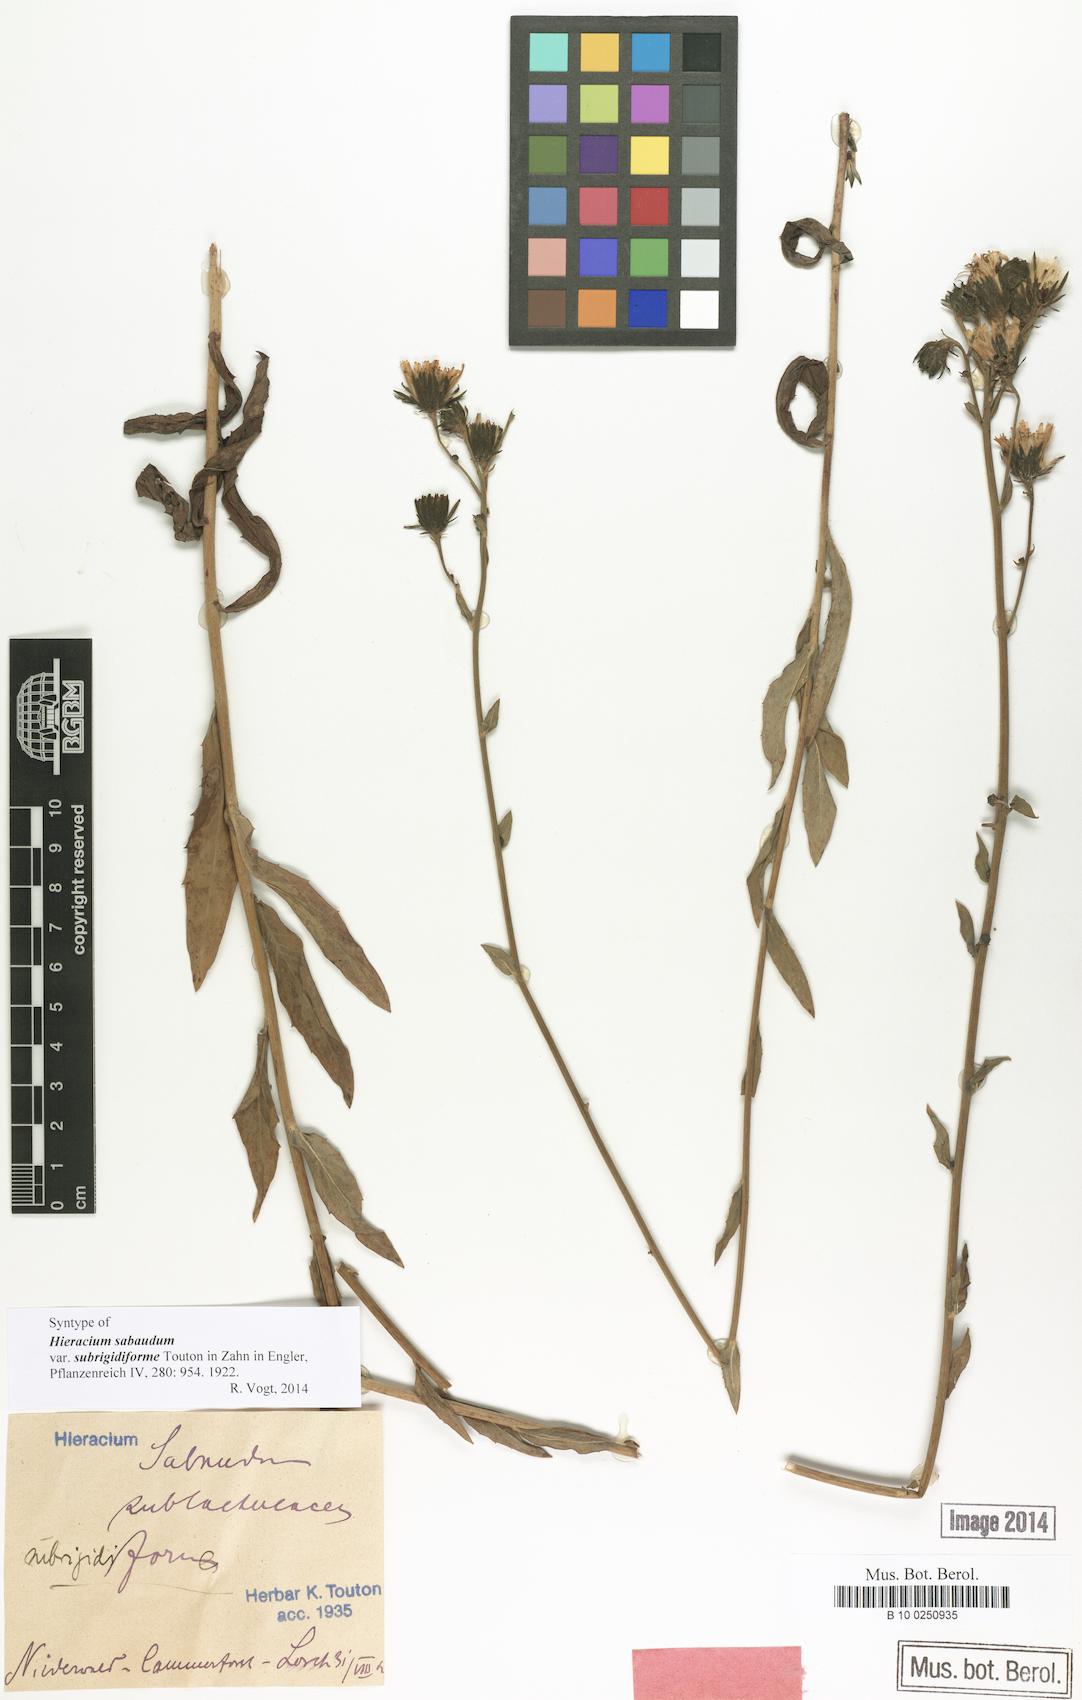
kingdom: Plantae
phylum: Tracheophyta
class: Magnoliopsida
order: Asterales
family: Asteraceae
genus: Hieracium
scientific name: Hieracium sabaudum
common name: New england hawkweed
